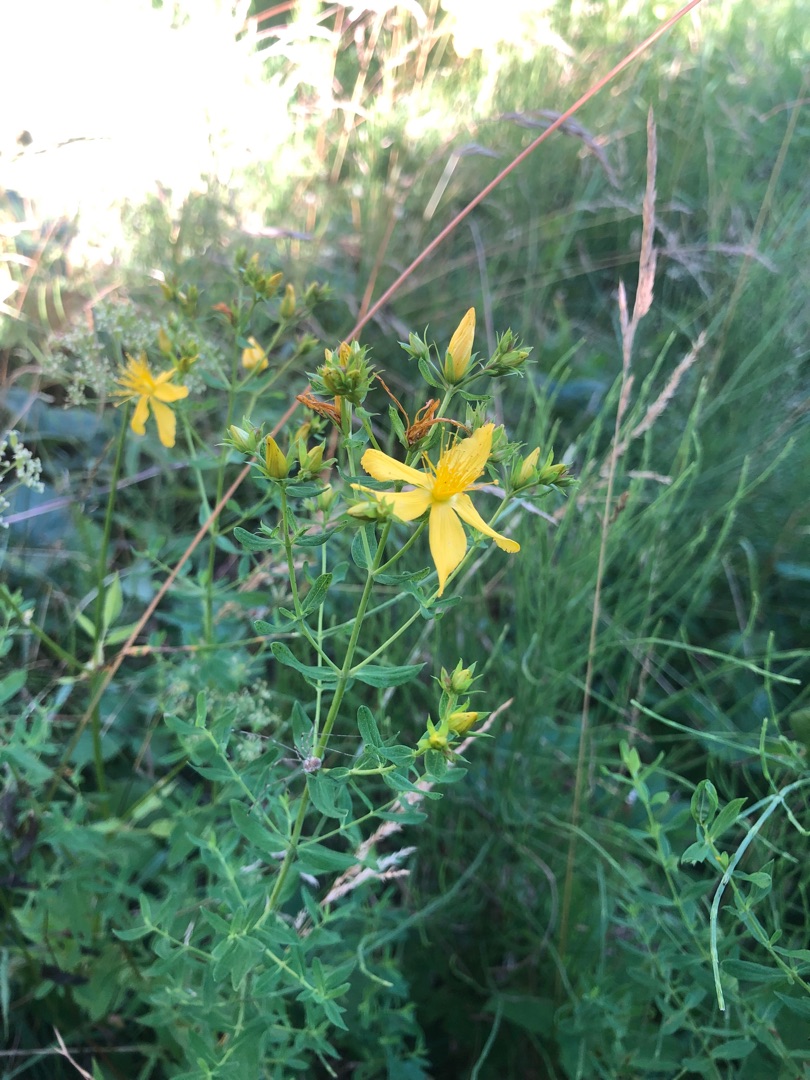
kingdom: Plantae
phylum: Tracheophyta
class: Magnoliopsida
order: Malpighiales
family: Hypericaceae
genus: Hypericum
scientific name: Hypericum perforatum
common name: Prikbladet perikon
